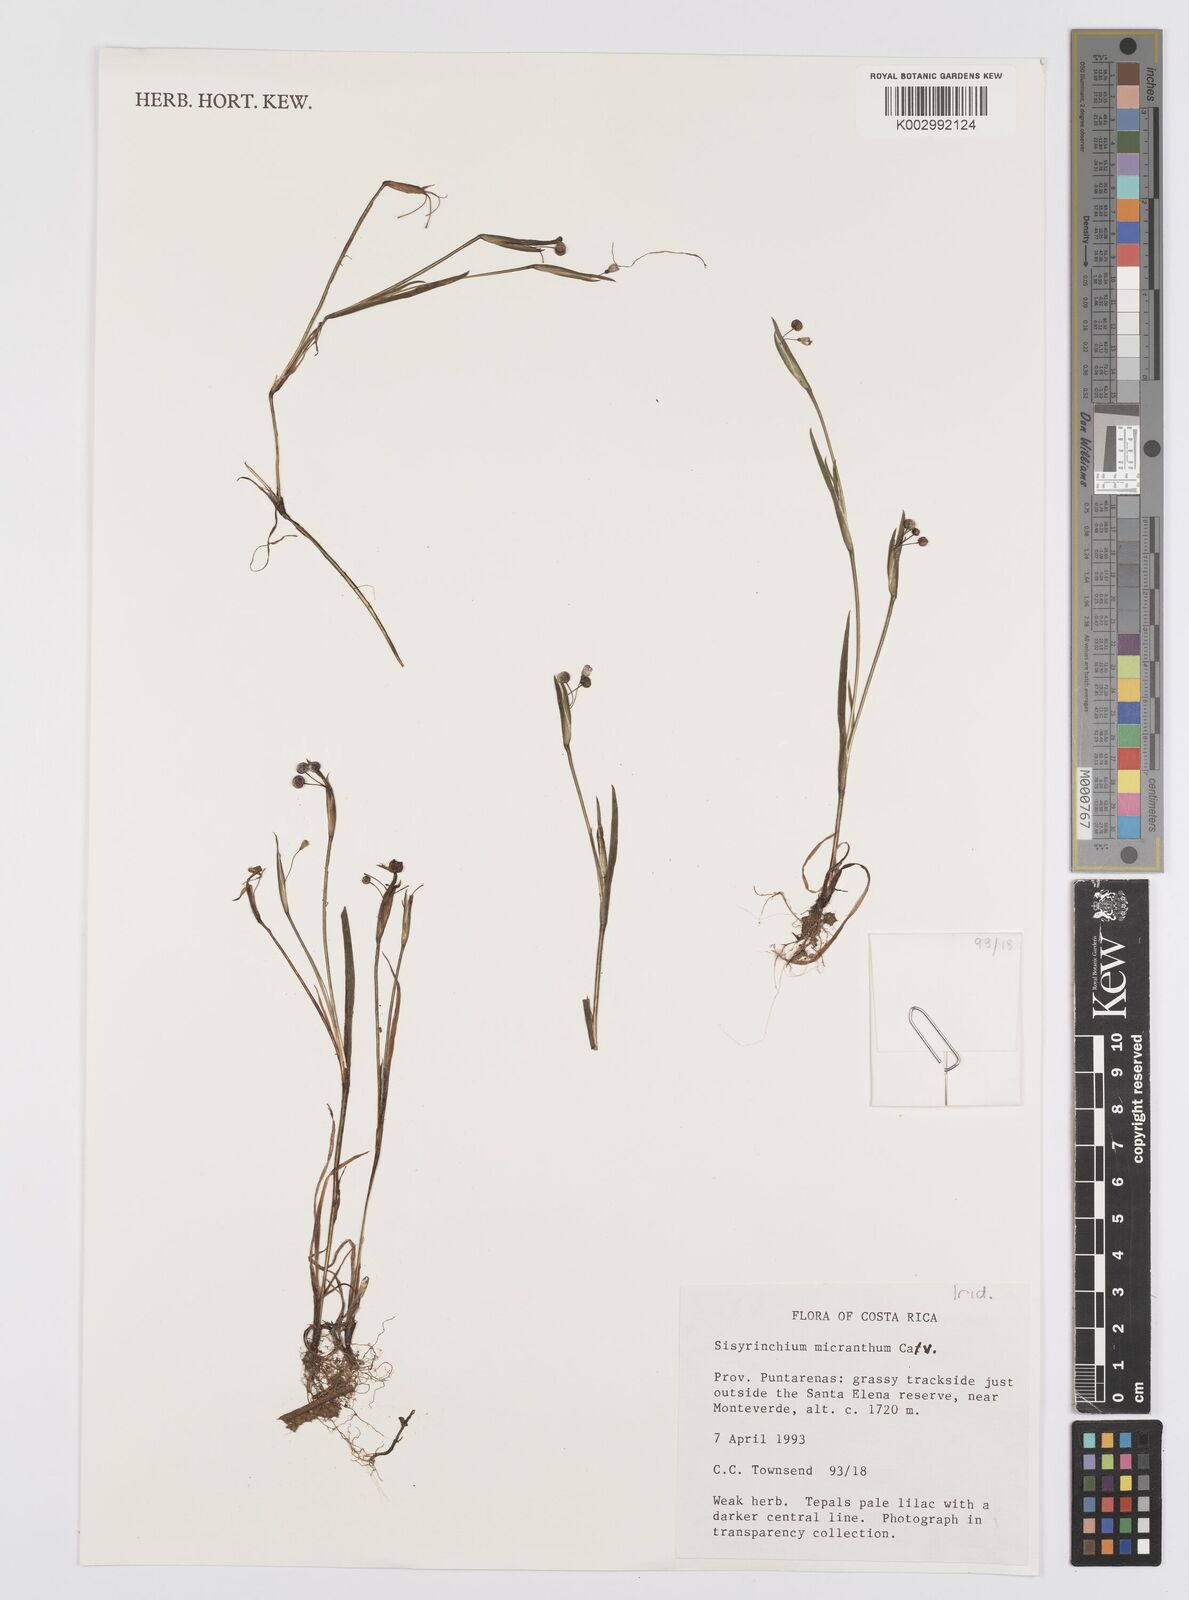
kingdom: Plantae
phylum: Tracheophyta
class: Liliopsida
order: Asparagales
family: Iridaceae
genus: Sisyrinchium
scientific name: Sisyrinchium micranthum
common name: Bermuda pigroot
